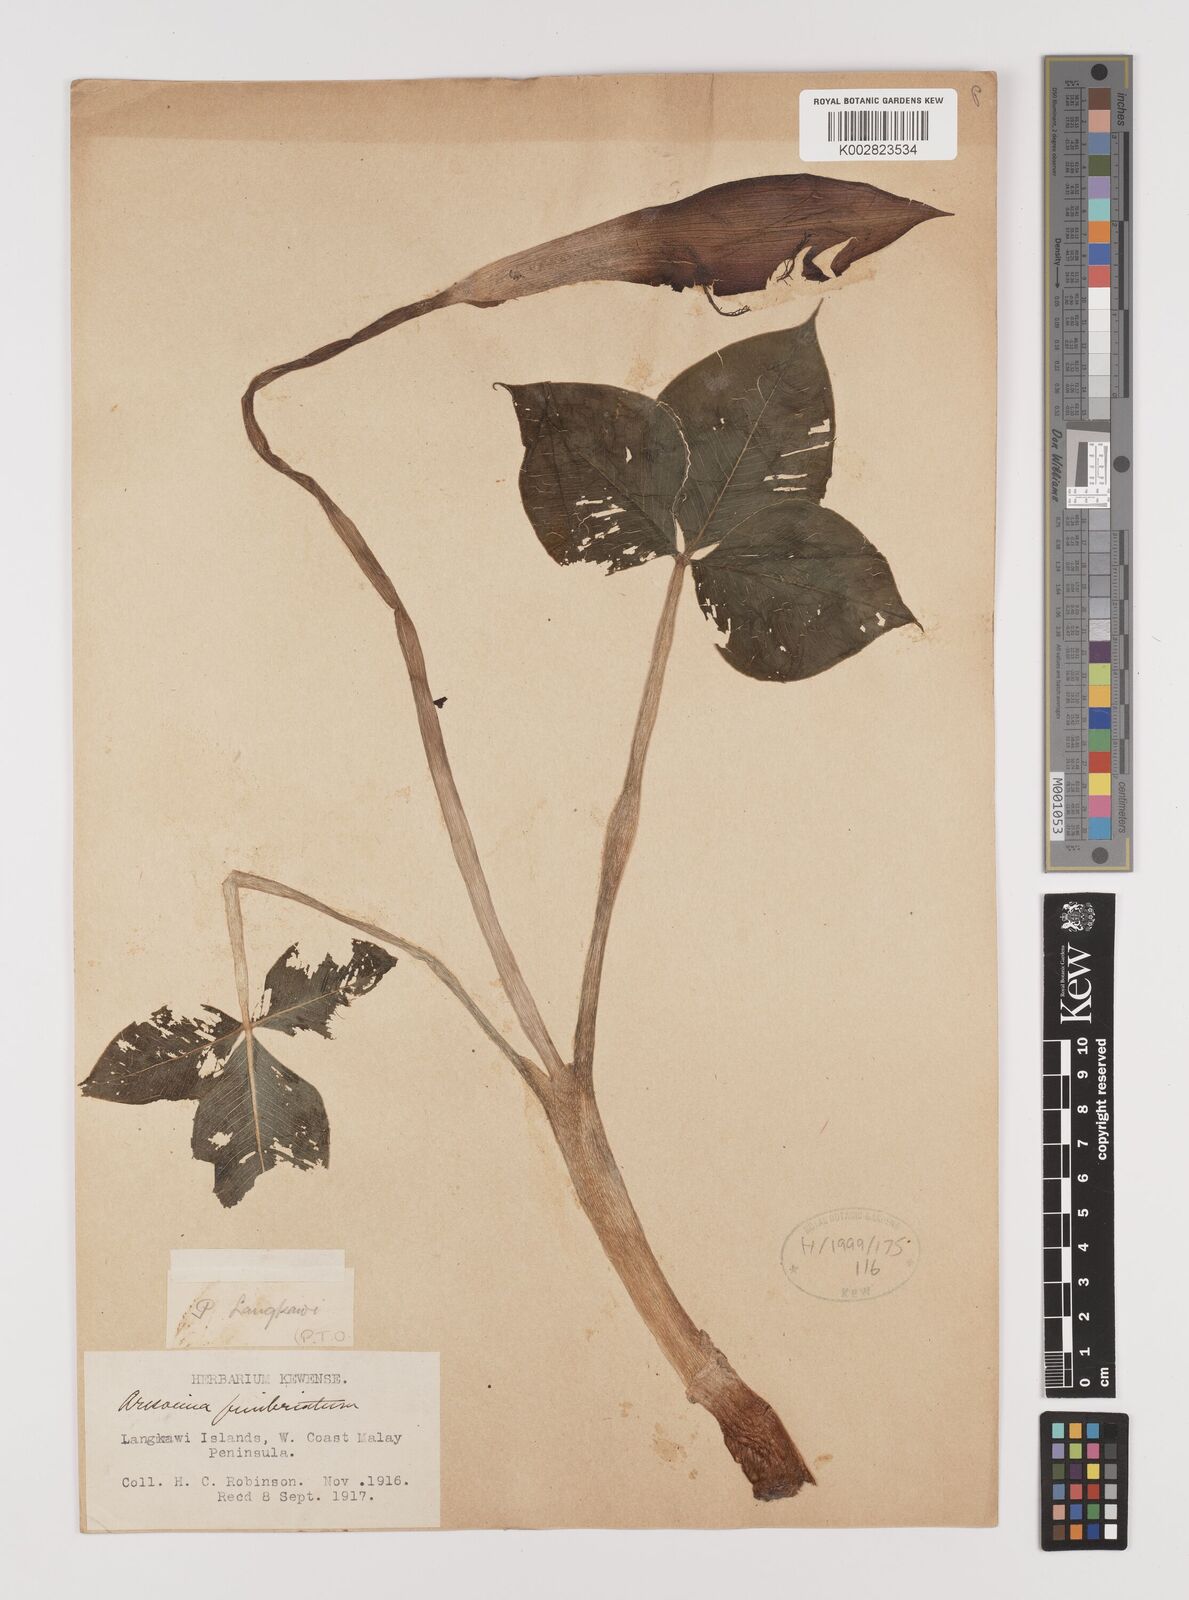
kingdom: Plantae
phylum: Tracheophyta
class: Liliopsida
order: Alismatales
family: Araceae
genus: Arisaema
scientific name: Arisaema fimbriatum
